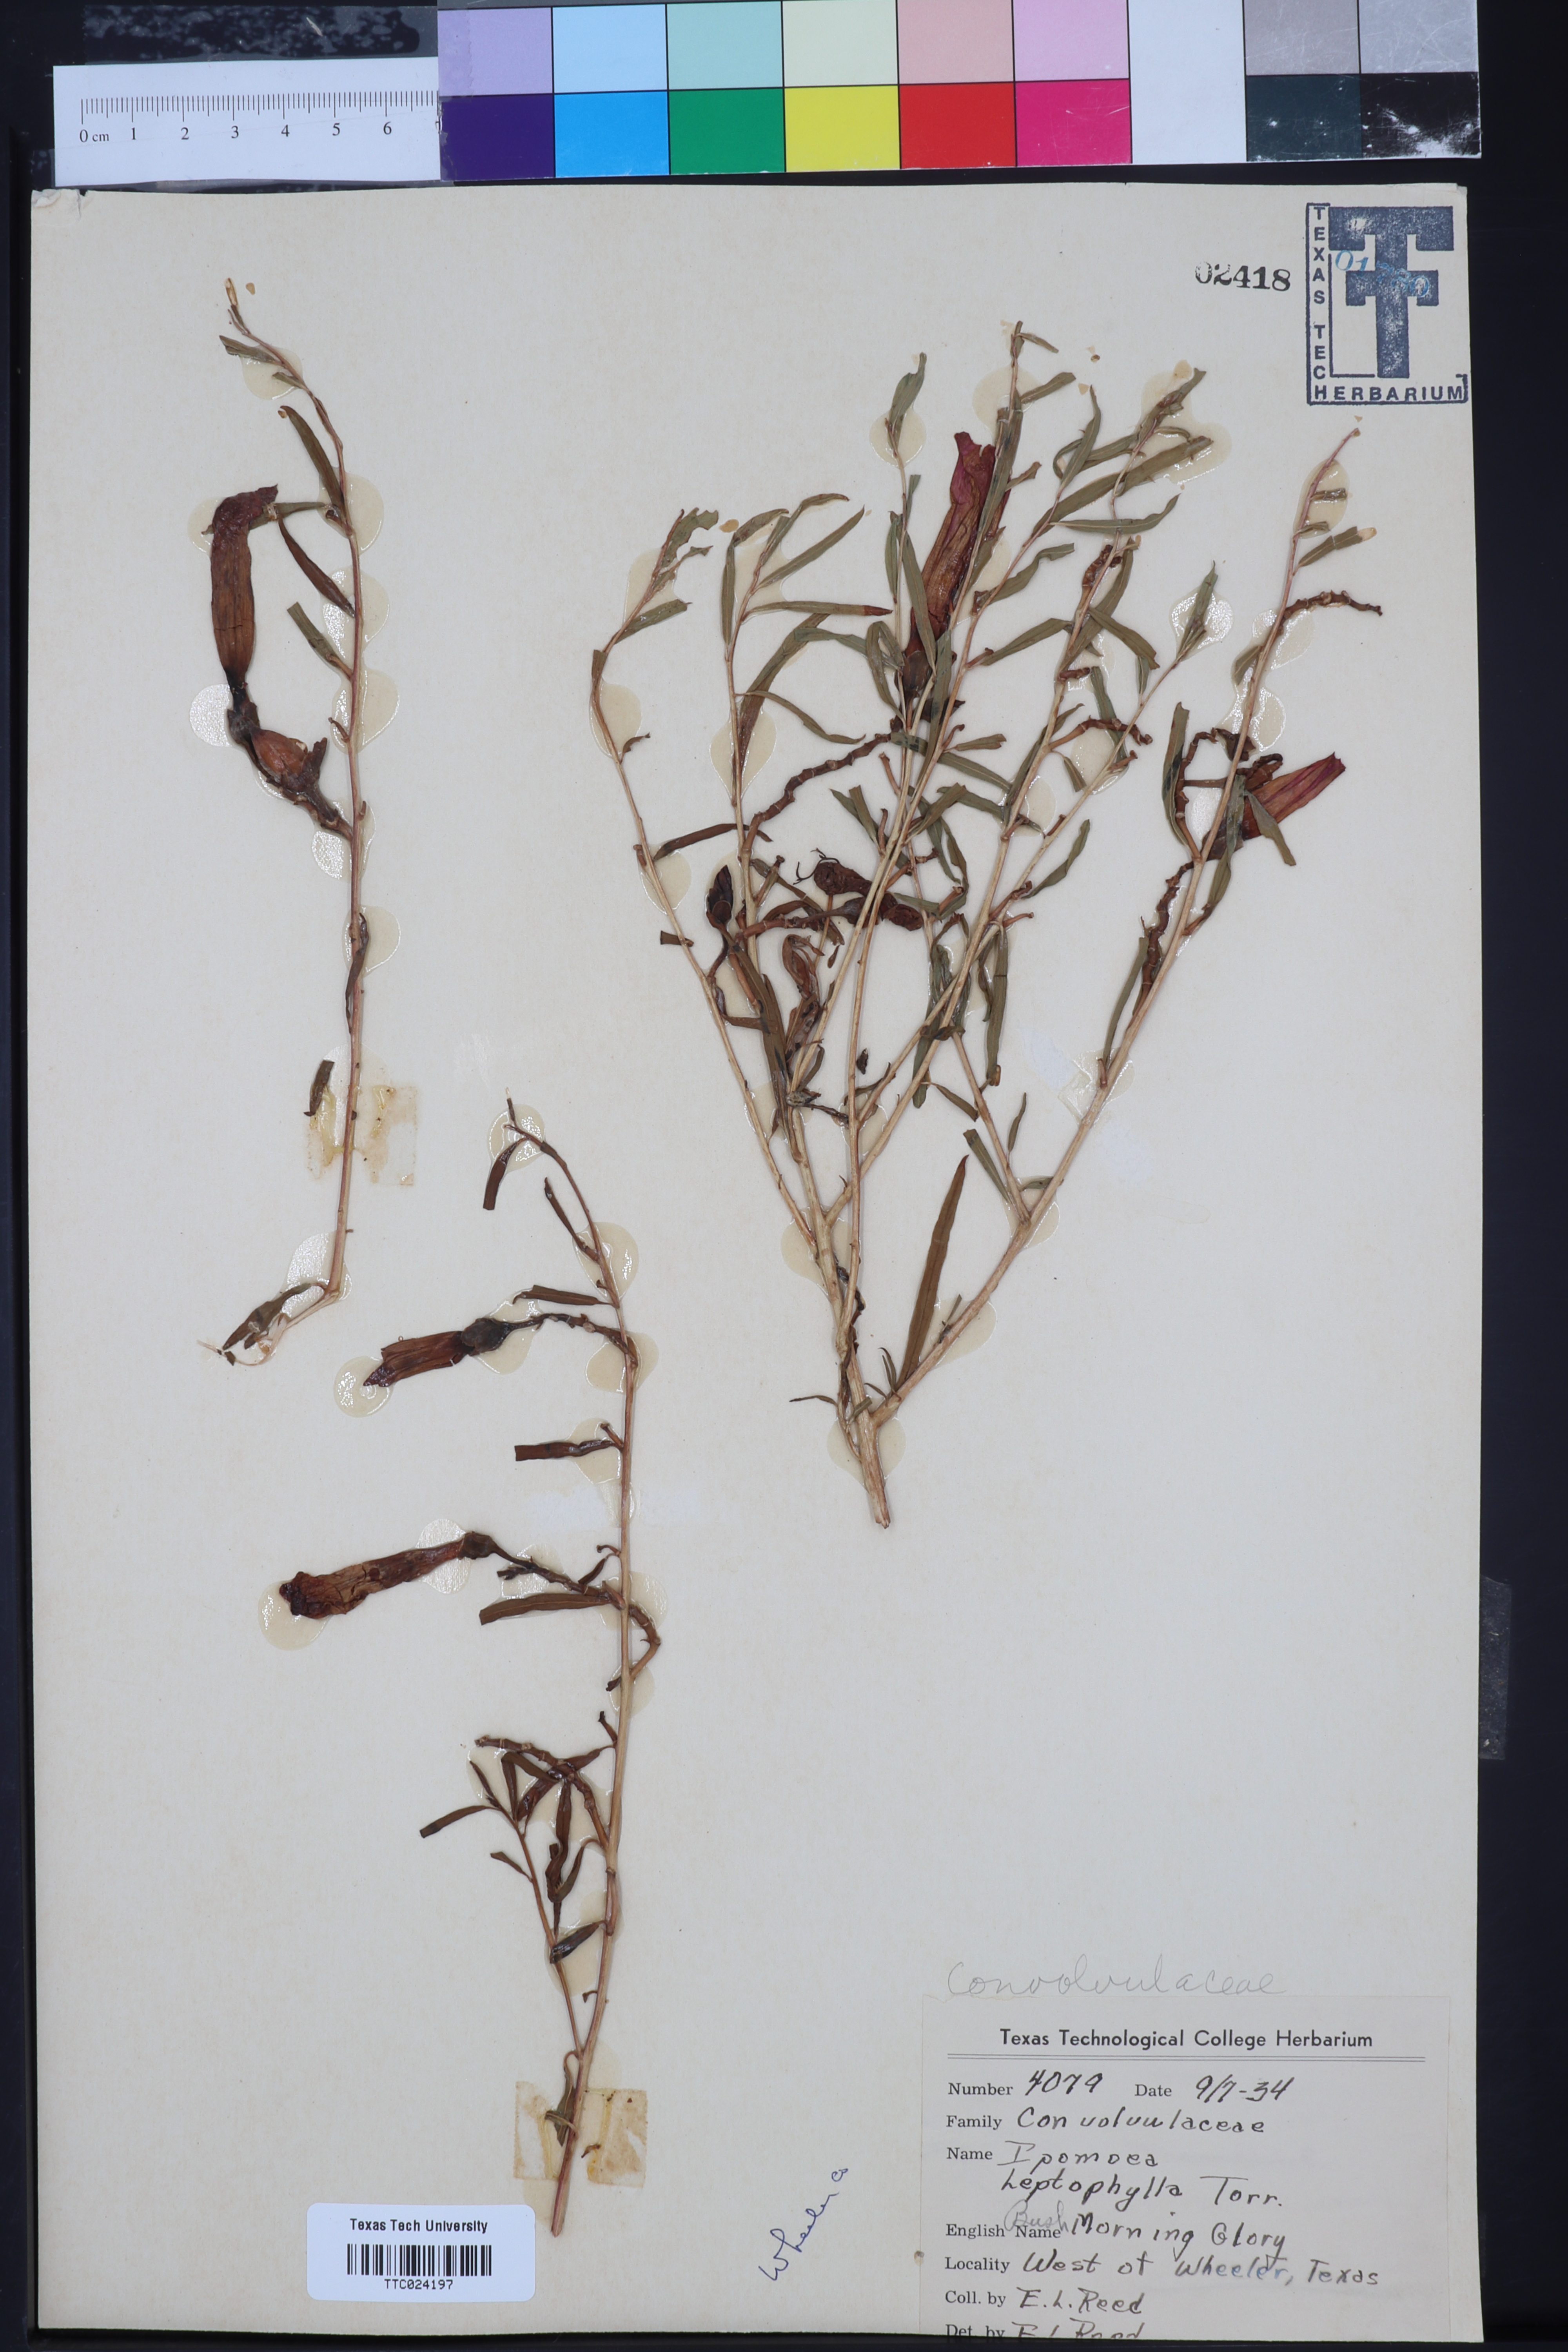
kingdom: Plantae
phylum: Tracheophyta
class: Magnoliopsida
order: Solanales
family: Convolvulaceae
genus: Ipomoea
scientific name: Ipomoea leptophylla
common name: Bush moonflower
